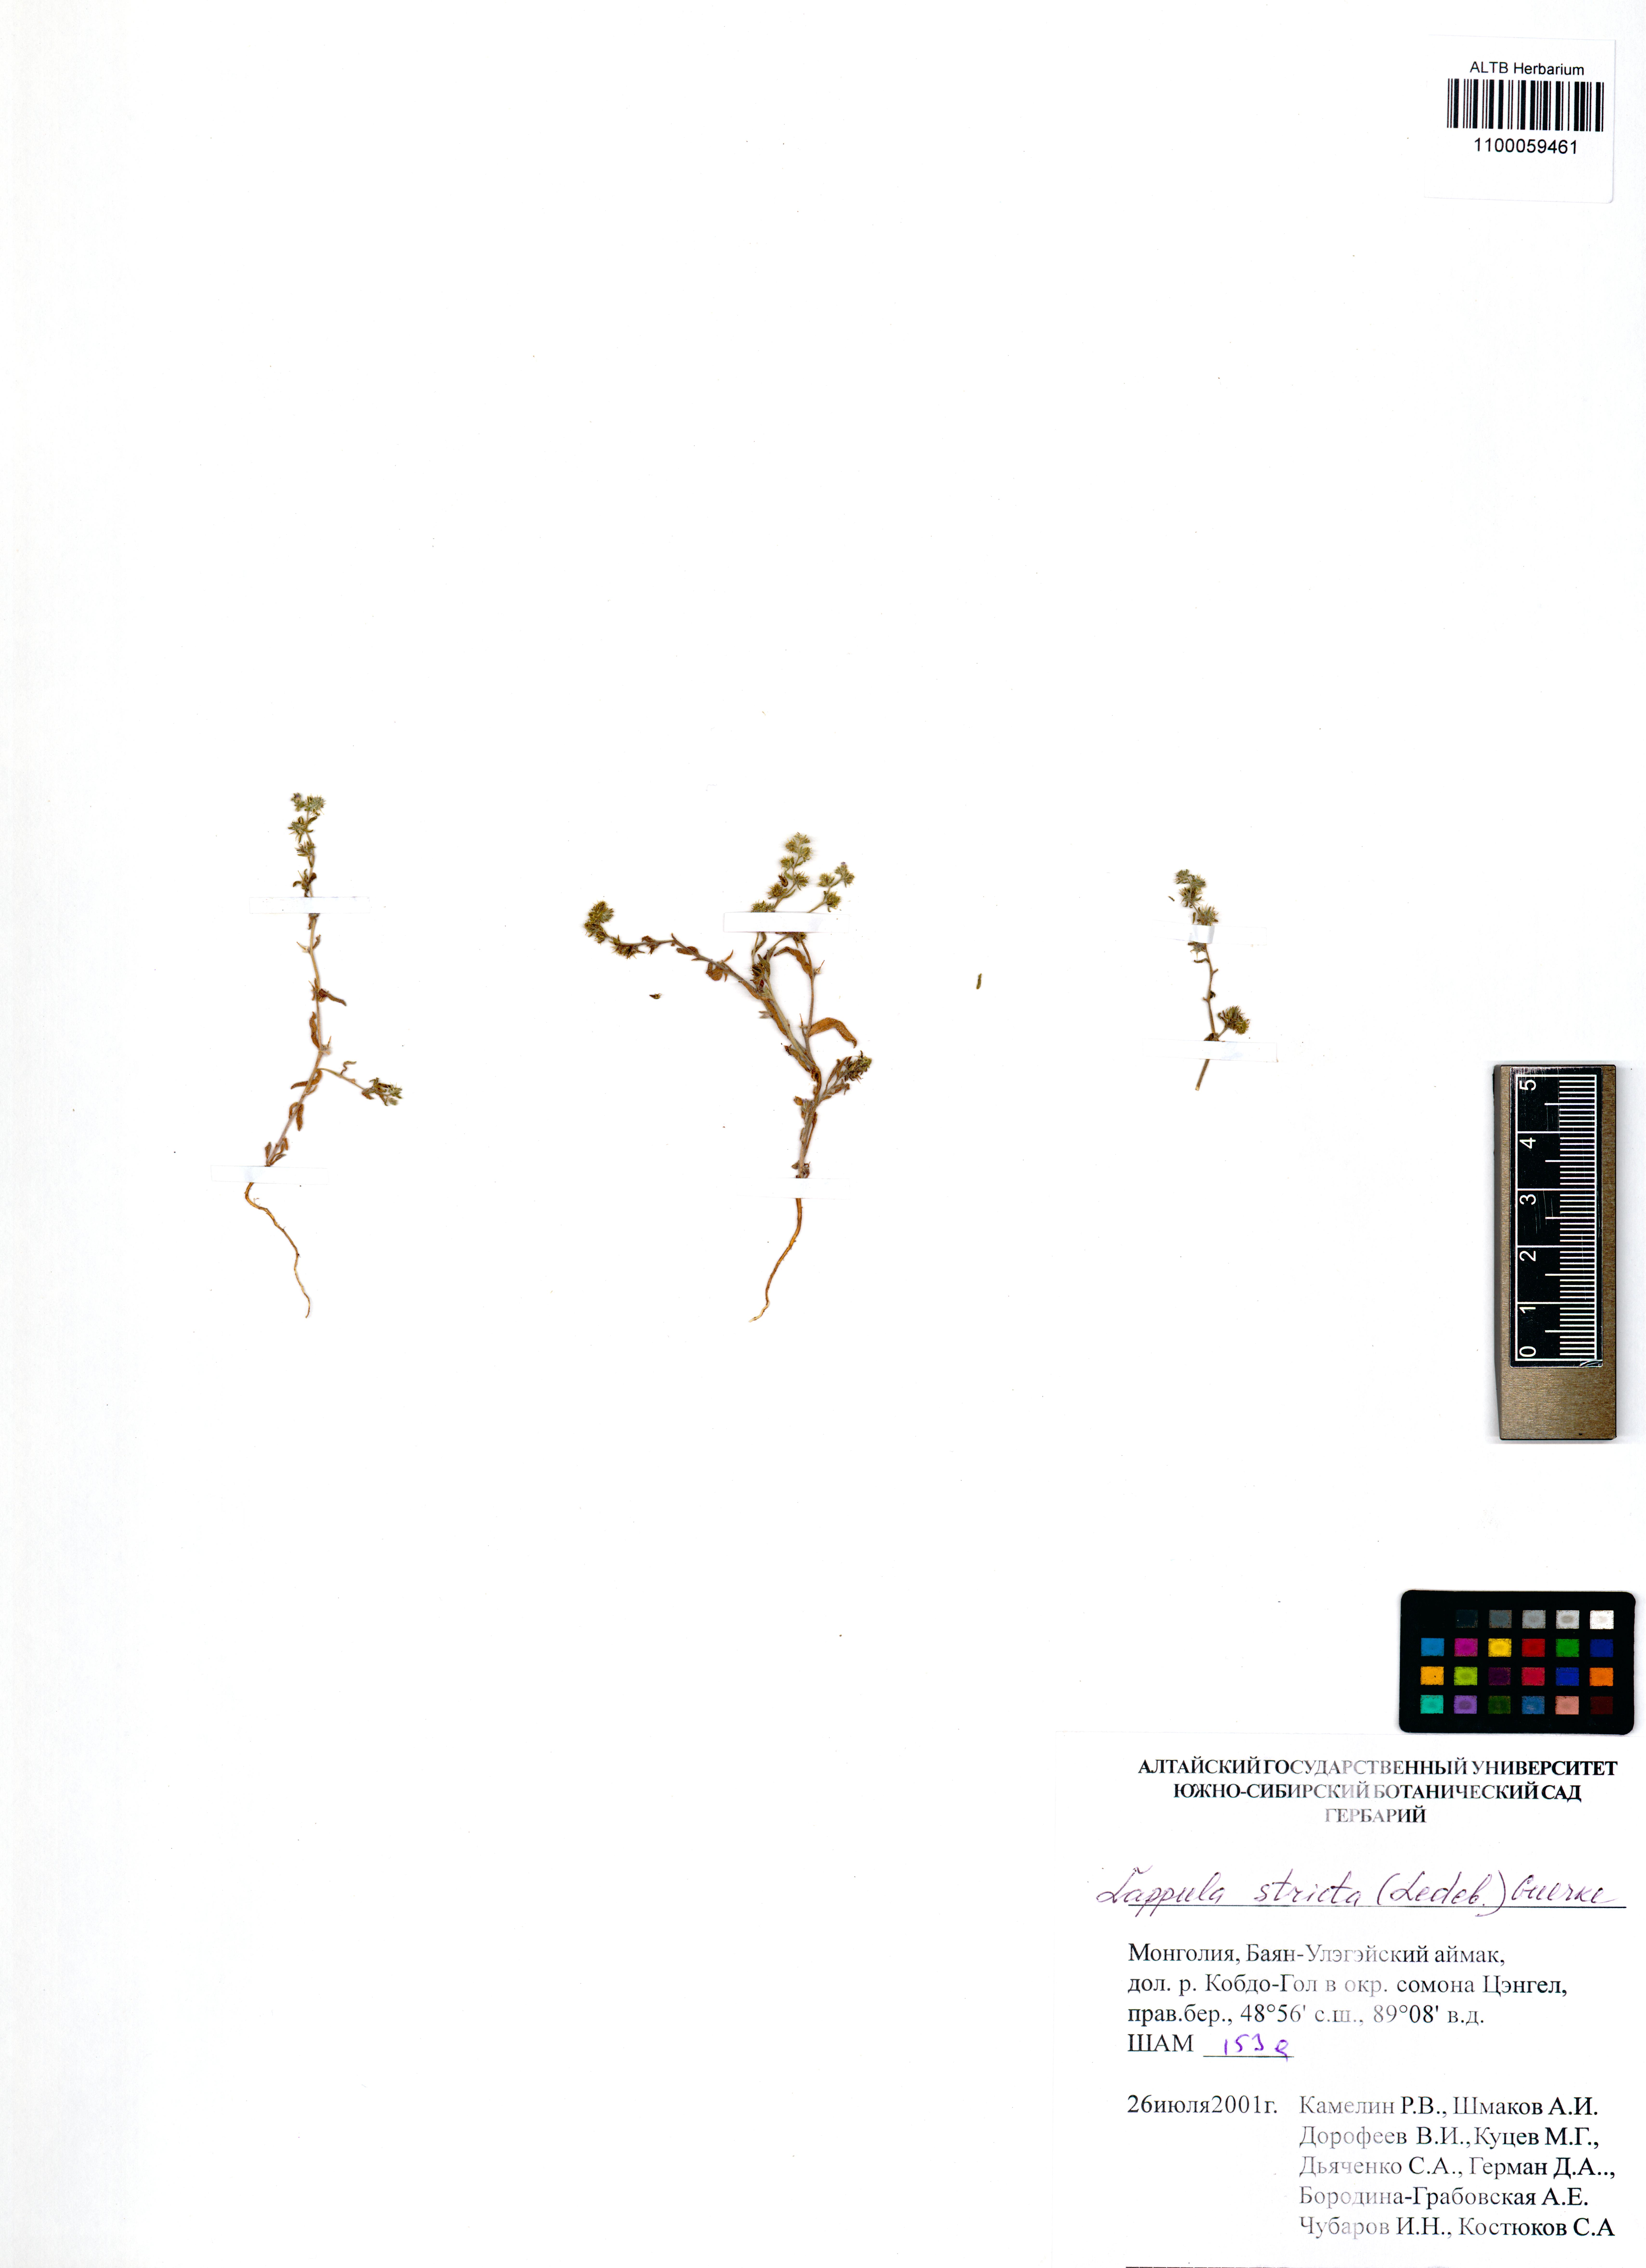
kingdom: Plantae
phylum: Tracheophyta
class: Magnoliopsida
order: Boraginales
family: Boraginaceae
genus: Lappula
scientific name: Lappula stricta
